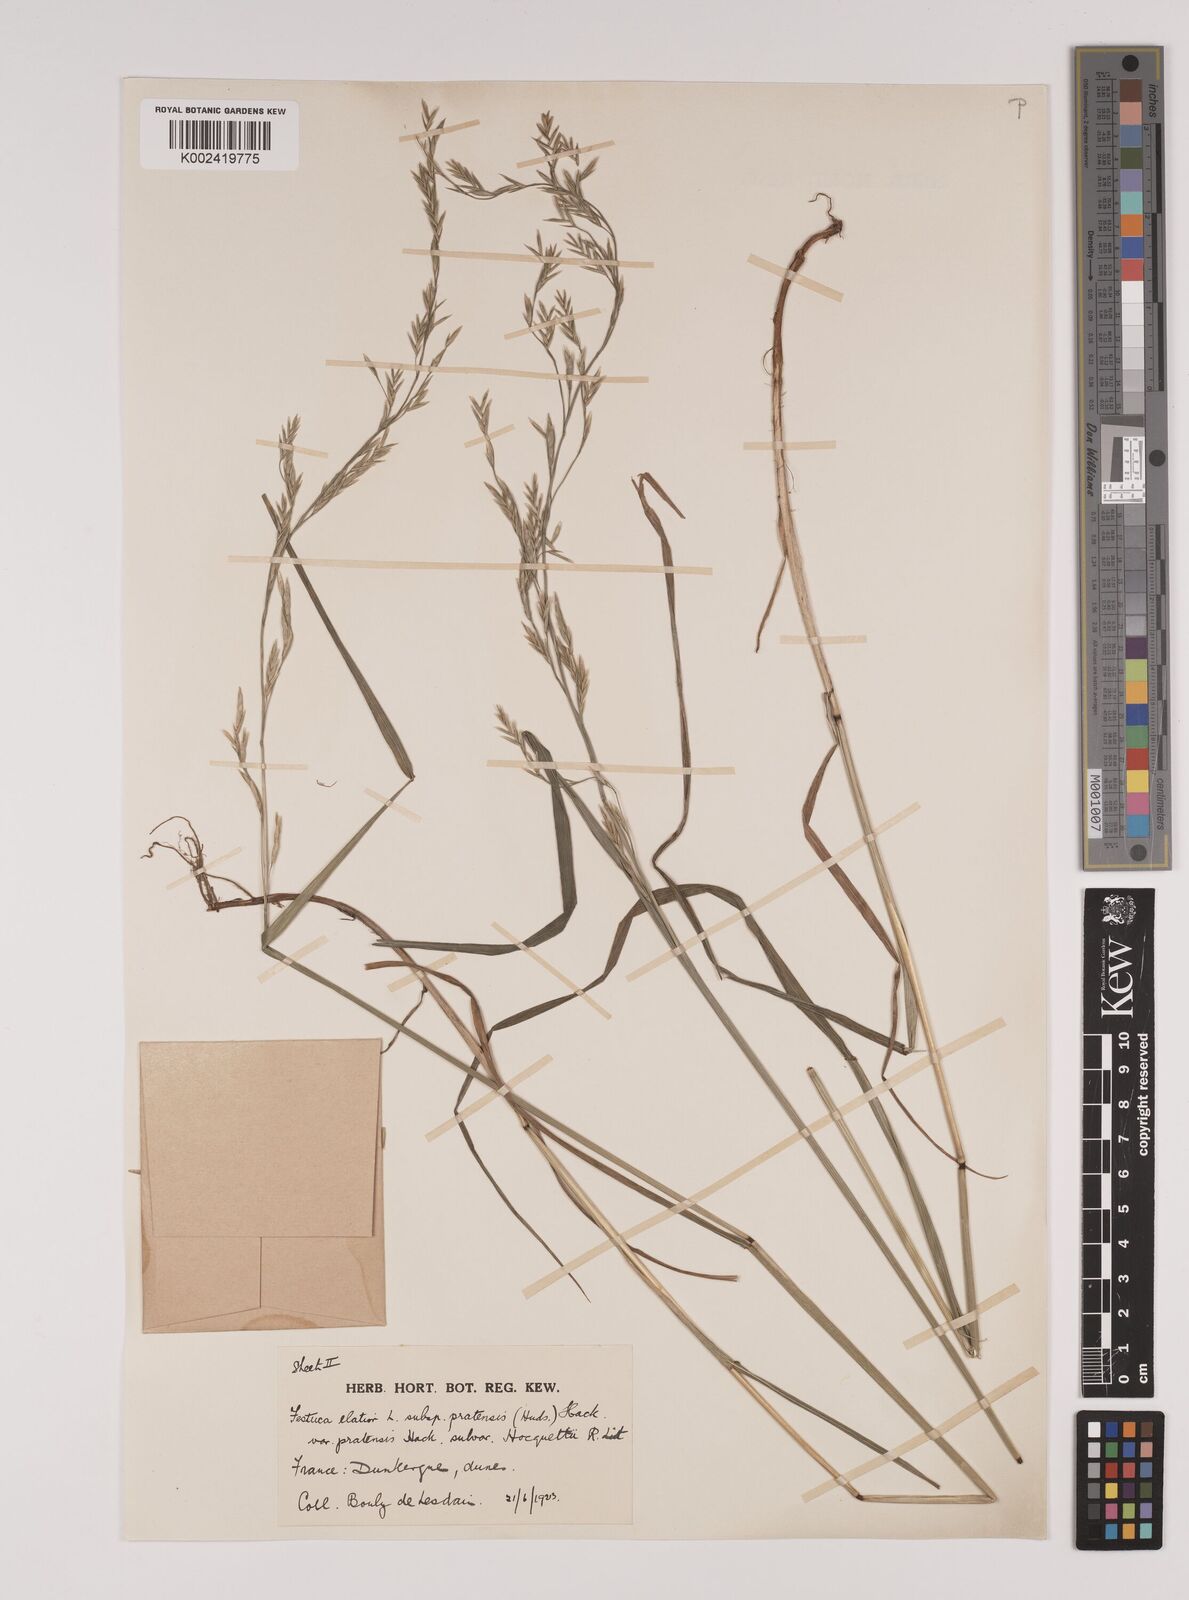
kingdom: Plantae
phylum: Tracheophyta
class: Liliopsida
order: Poales
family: Poaceae
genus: Lolium
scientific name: Lolium pratense
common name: Dover grass
